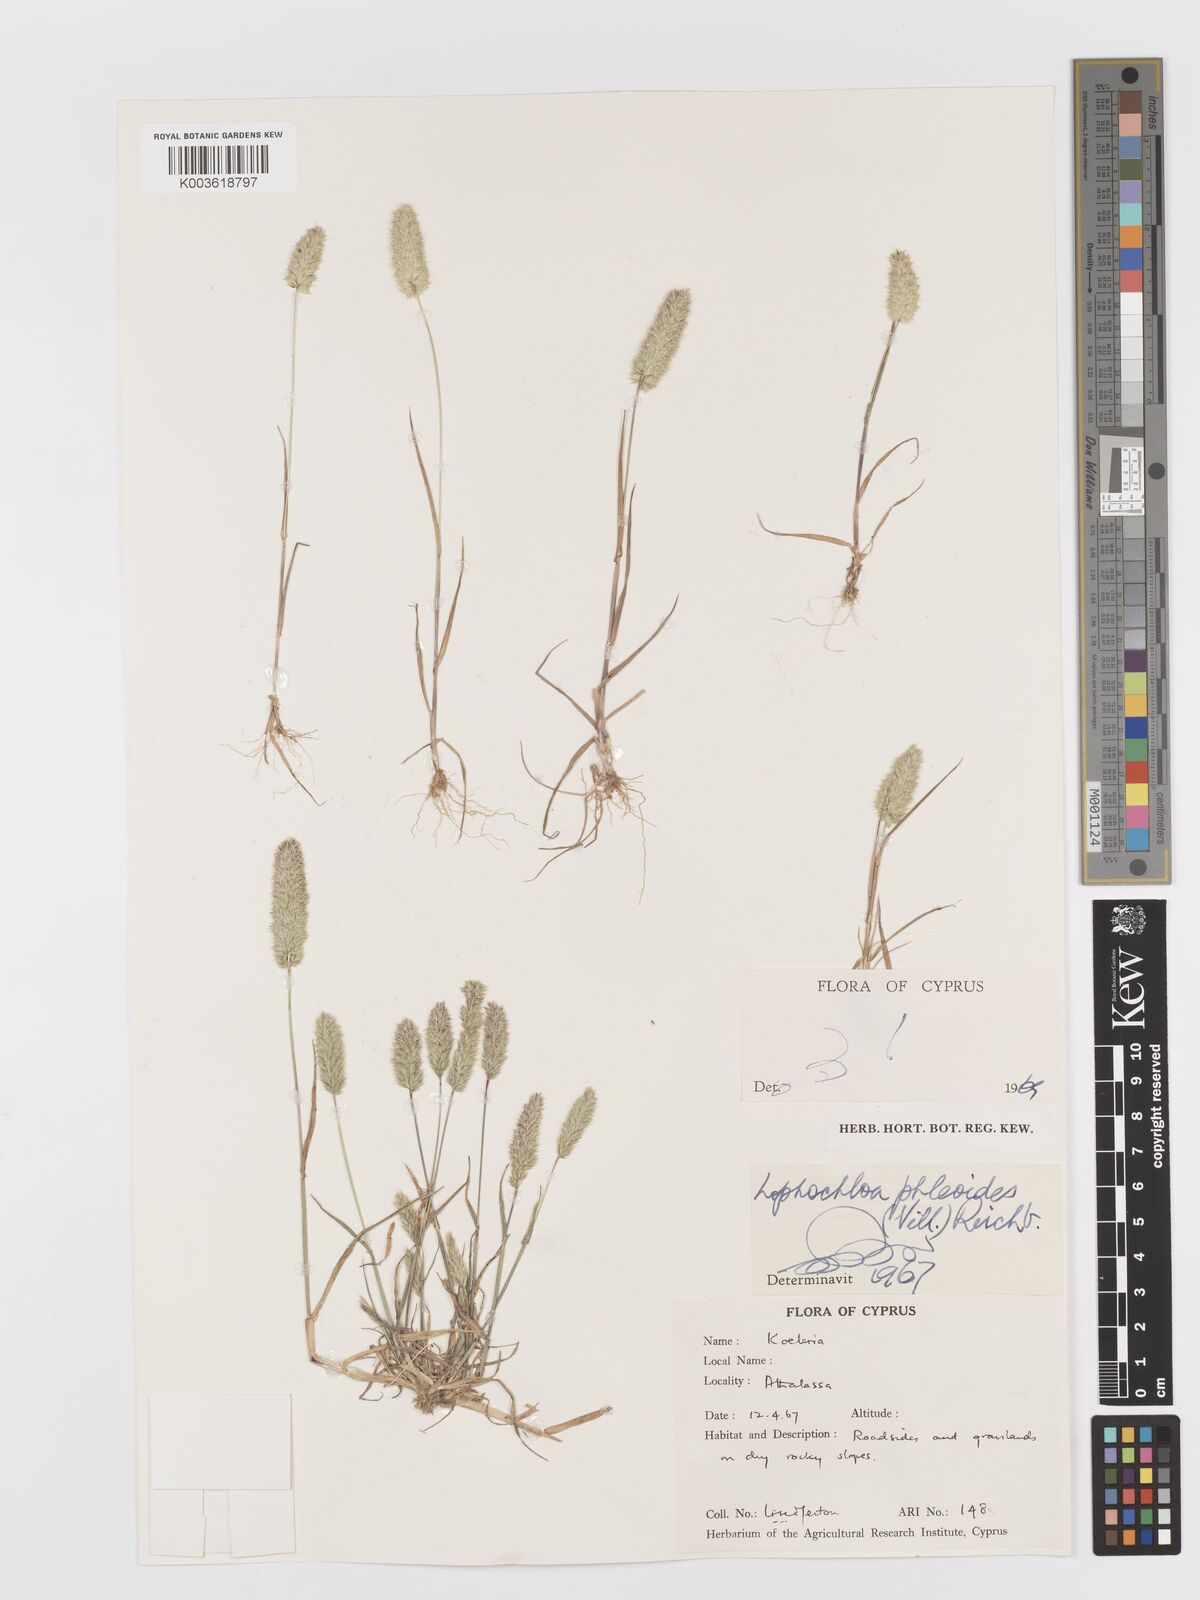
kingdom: Plantae
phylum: Tracheophyta
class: Liliopsida
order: Poales
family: Poaceae
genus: Rostraria
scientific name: Rostraria cristata
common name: Mediterranean hair-grass
